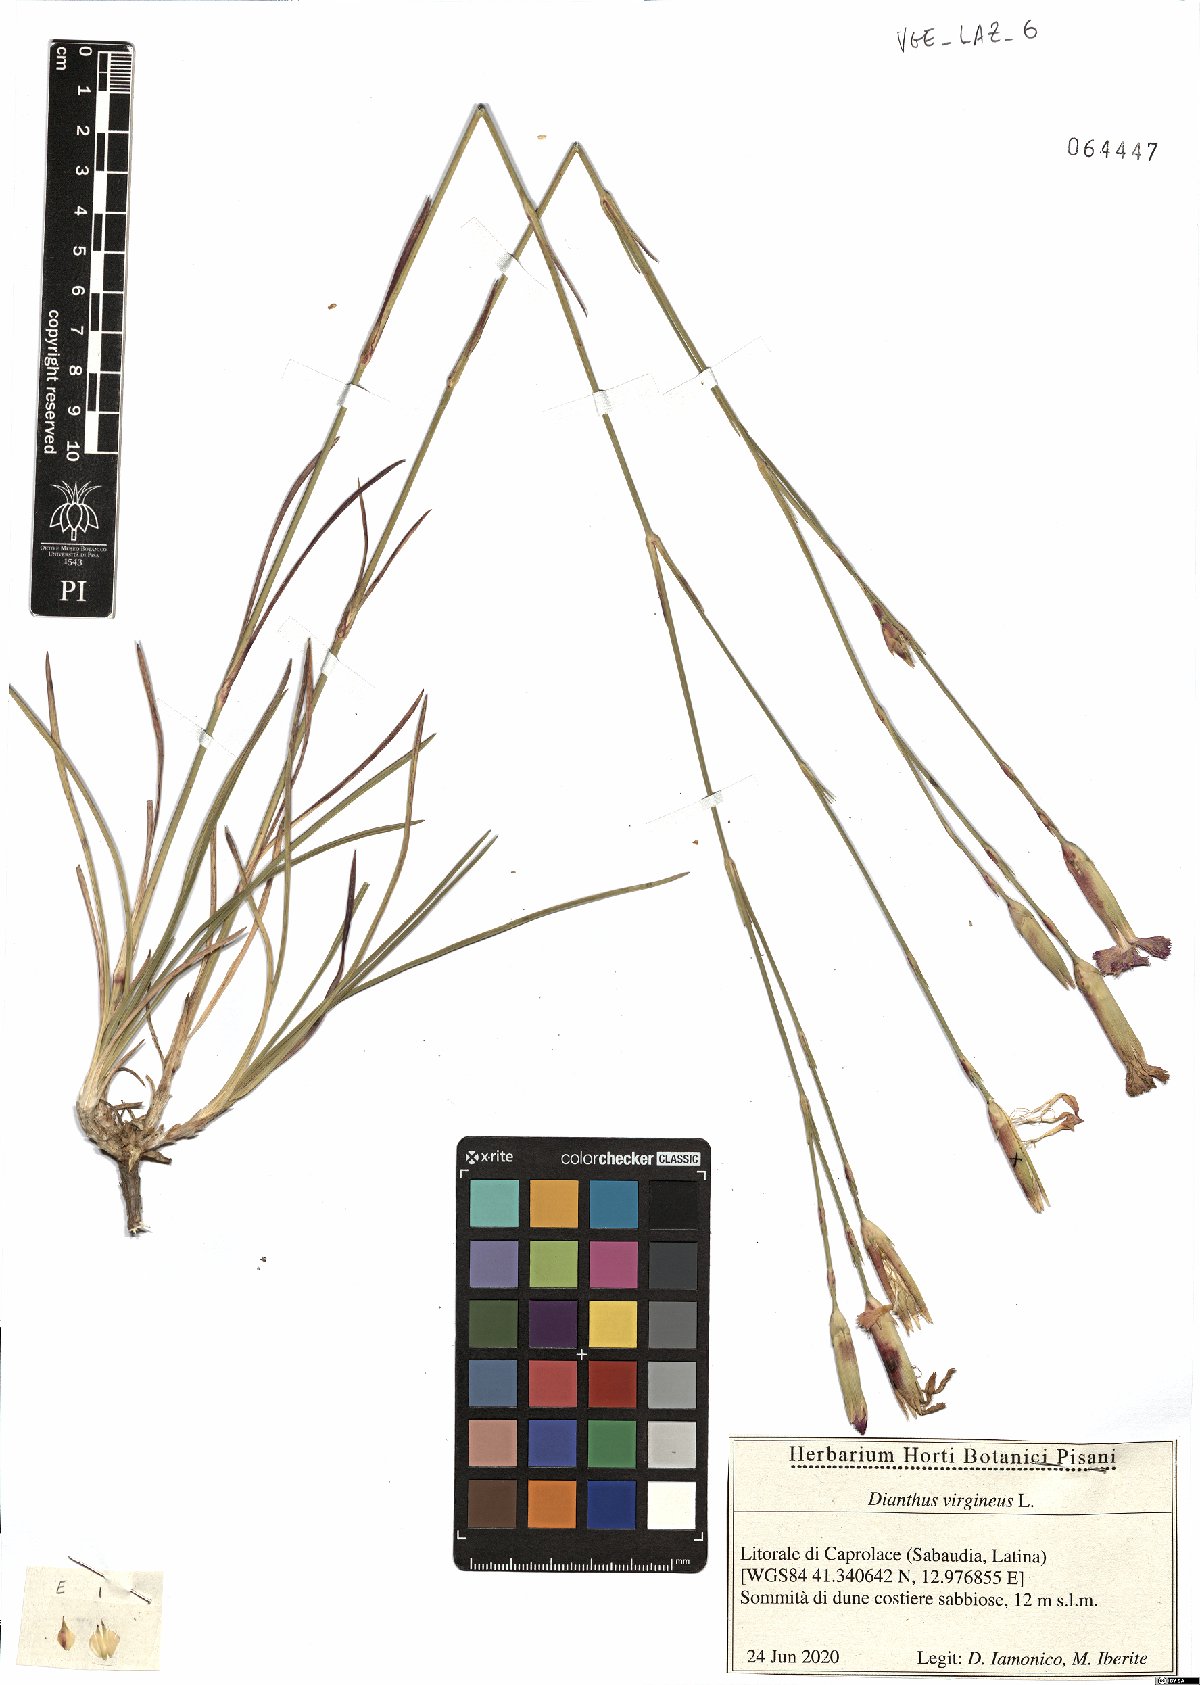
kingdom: Plantae
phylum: Tracheophyta
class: Magnoliopsida
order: Caryophyllales
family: Caryophyllaceae
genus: Dianthus
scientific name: Dianthus virgineus
